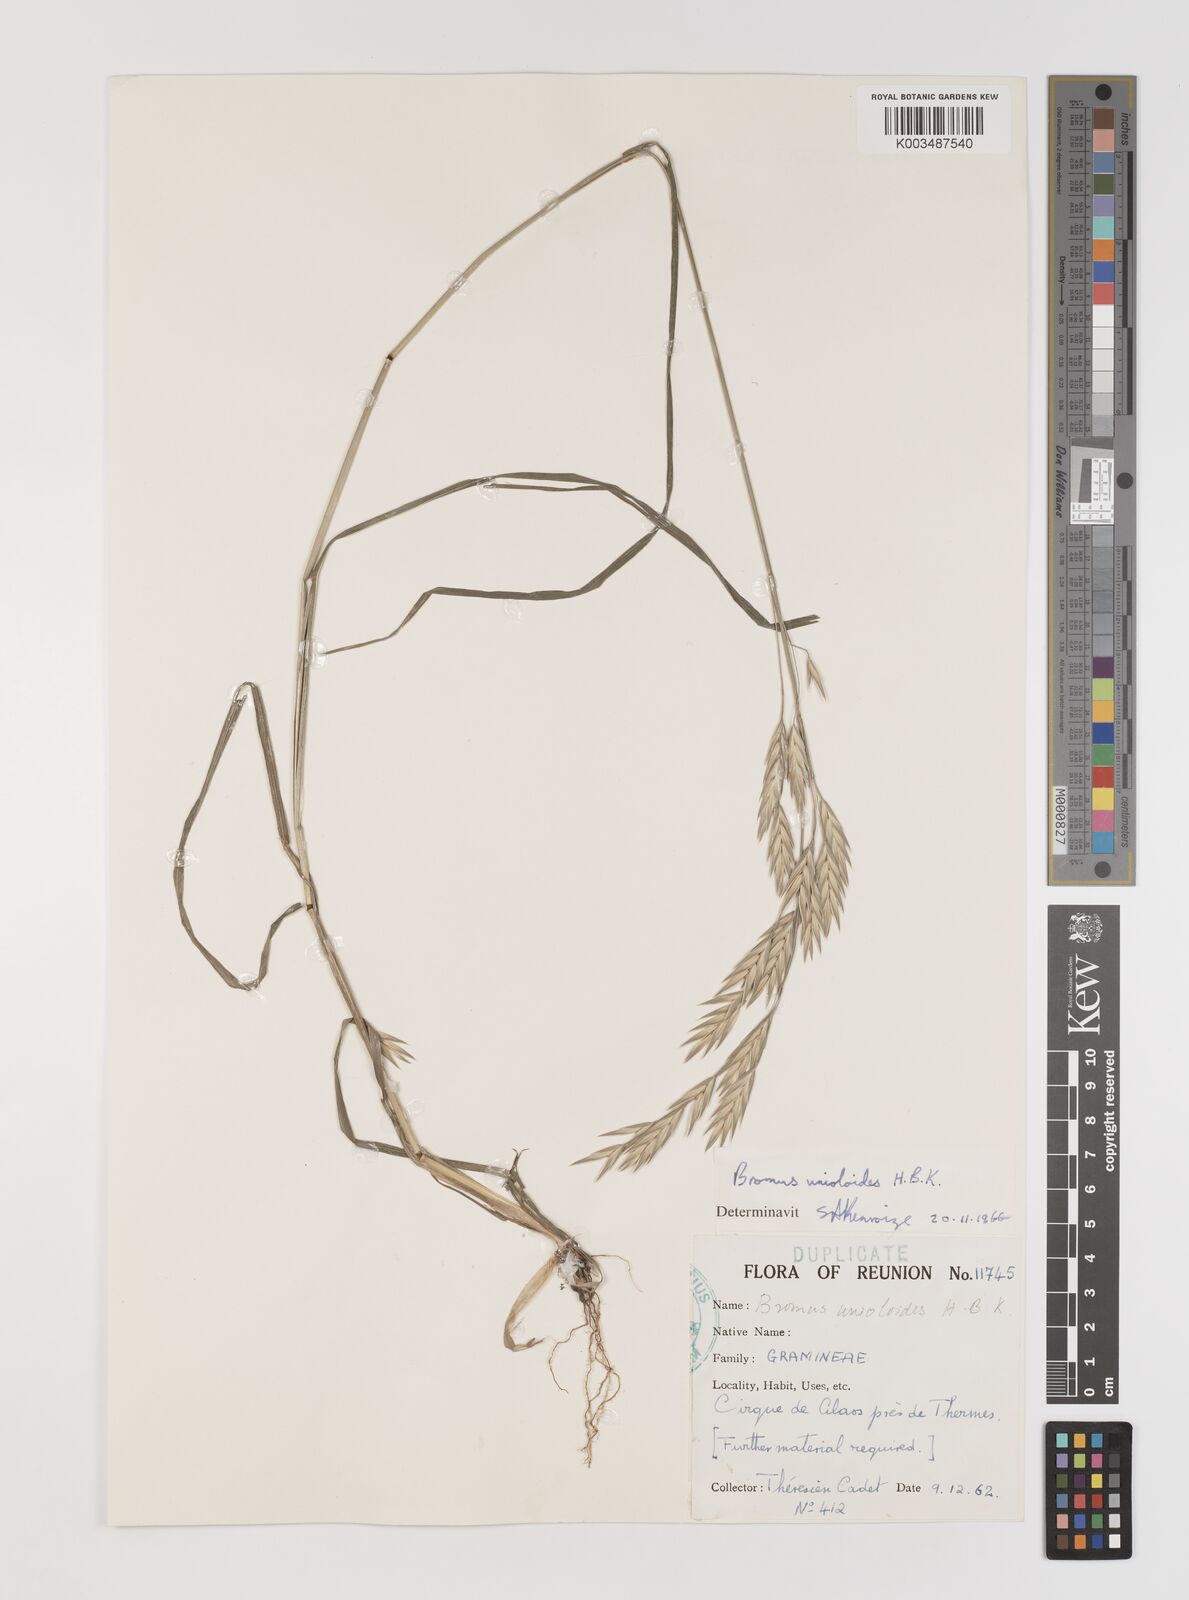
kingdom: Plantae
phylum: Tracheophyta
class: Liliopsida
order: Poales
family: Poaceae
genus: Bromus
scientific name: Bromus catharticus
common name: Rescuegrass
